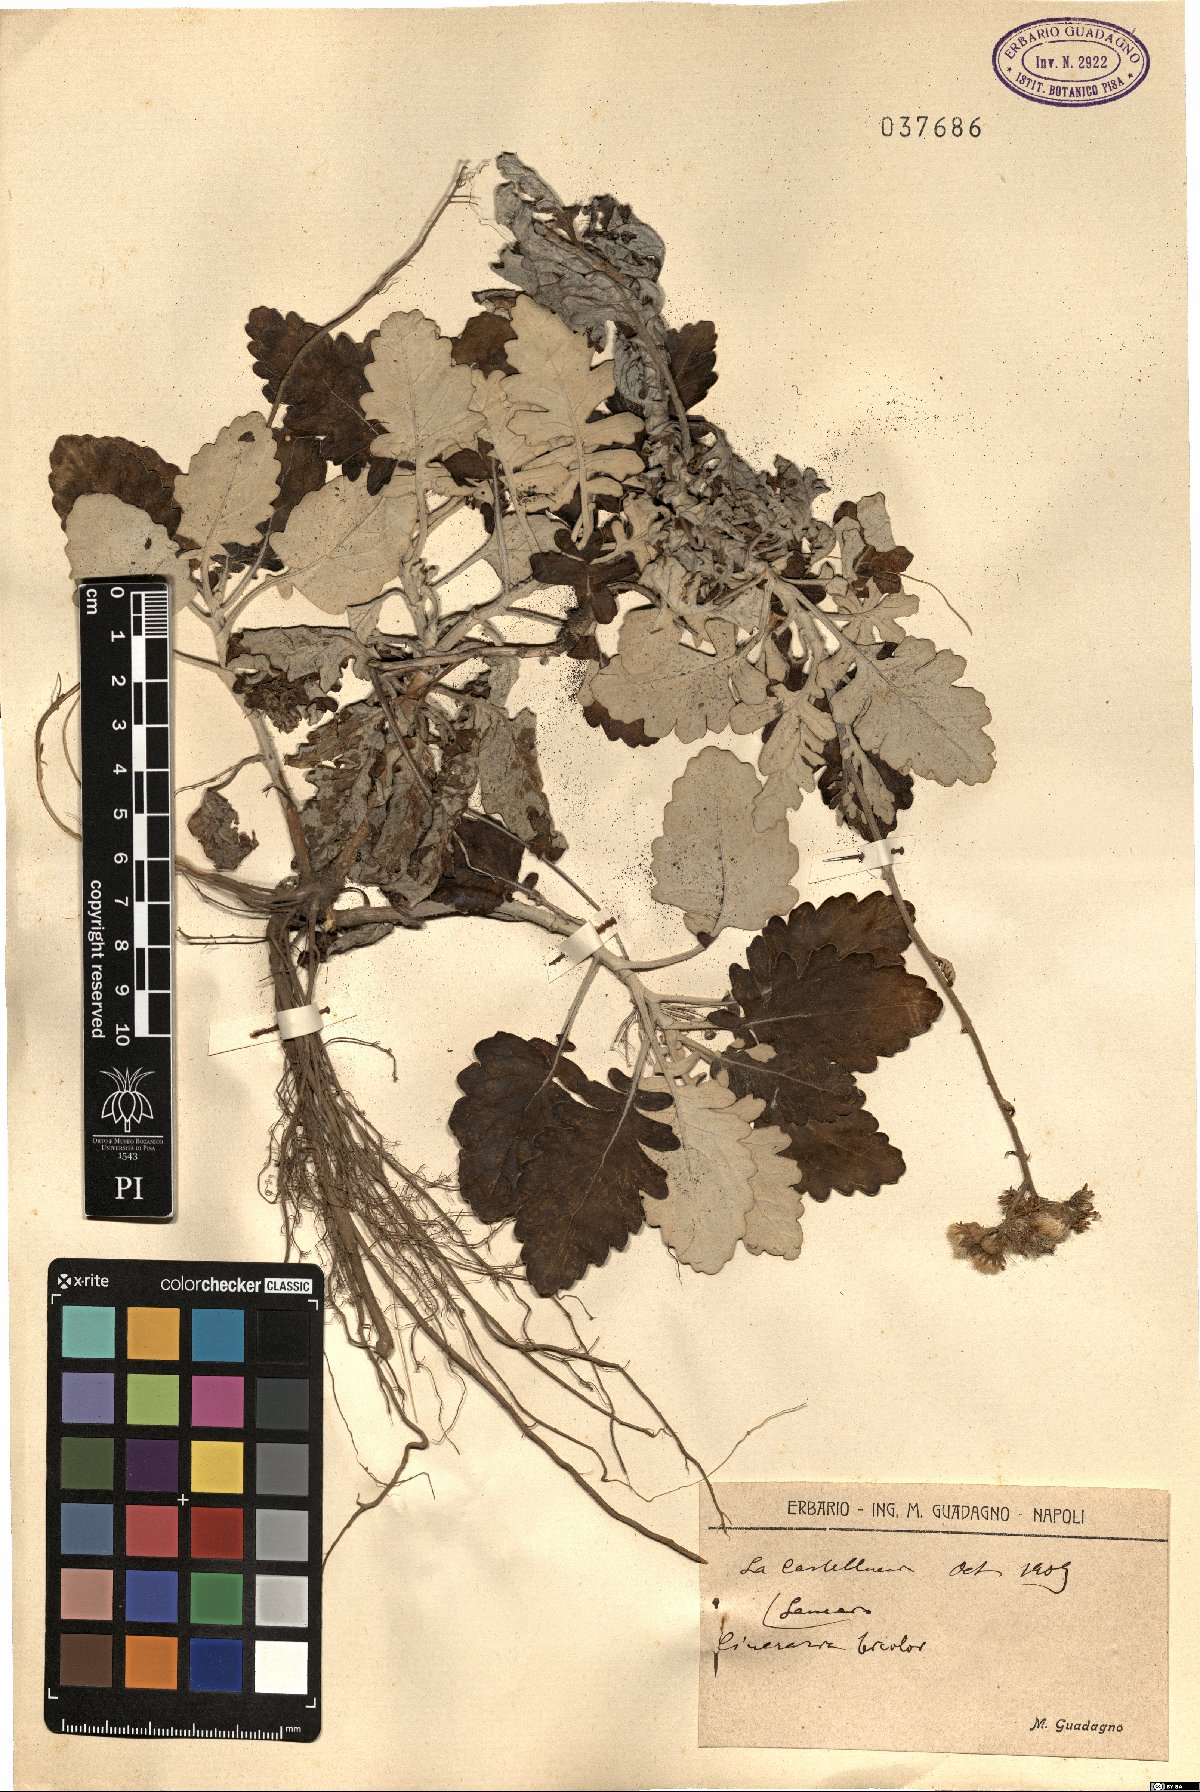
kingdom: Plantae
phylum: Tracheophyta
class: Magnoliopsida
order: Asterales
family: Asteraceae
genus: Jacobaea
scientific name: Jacobaea maritima
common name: Silver ragwort
